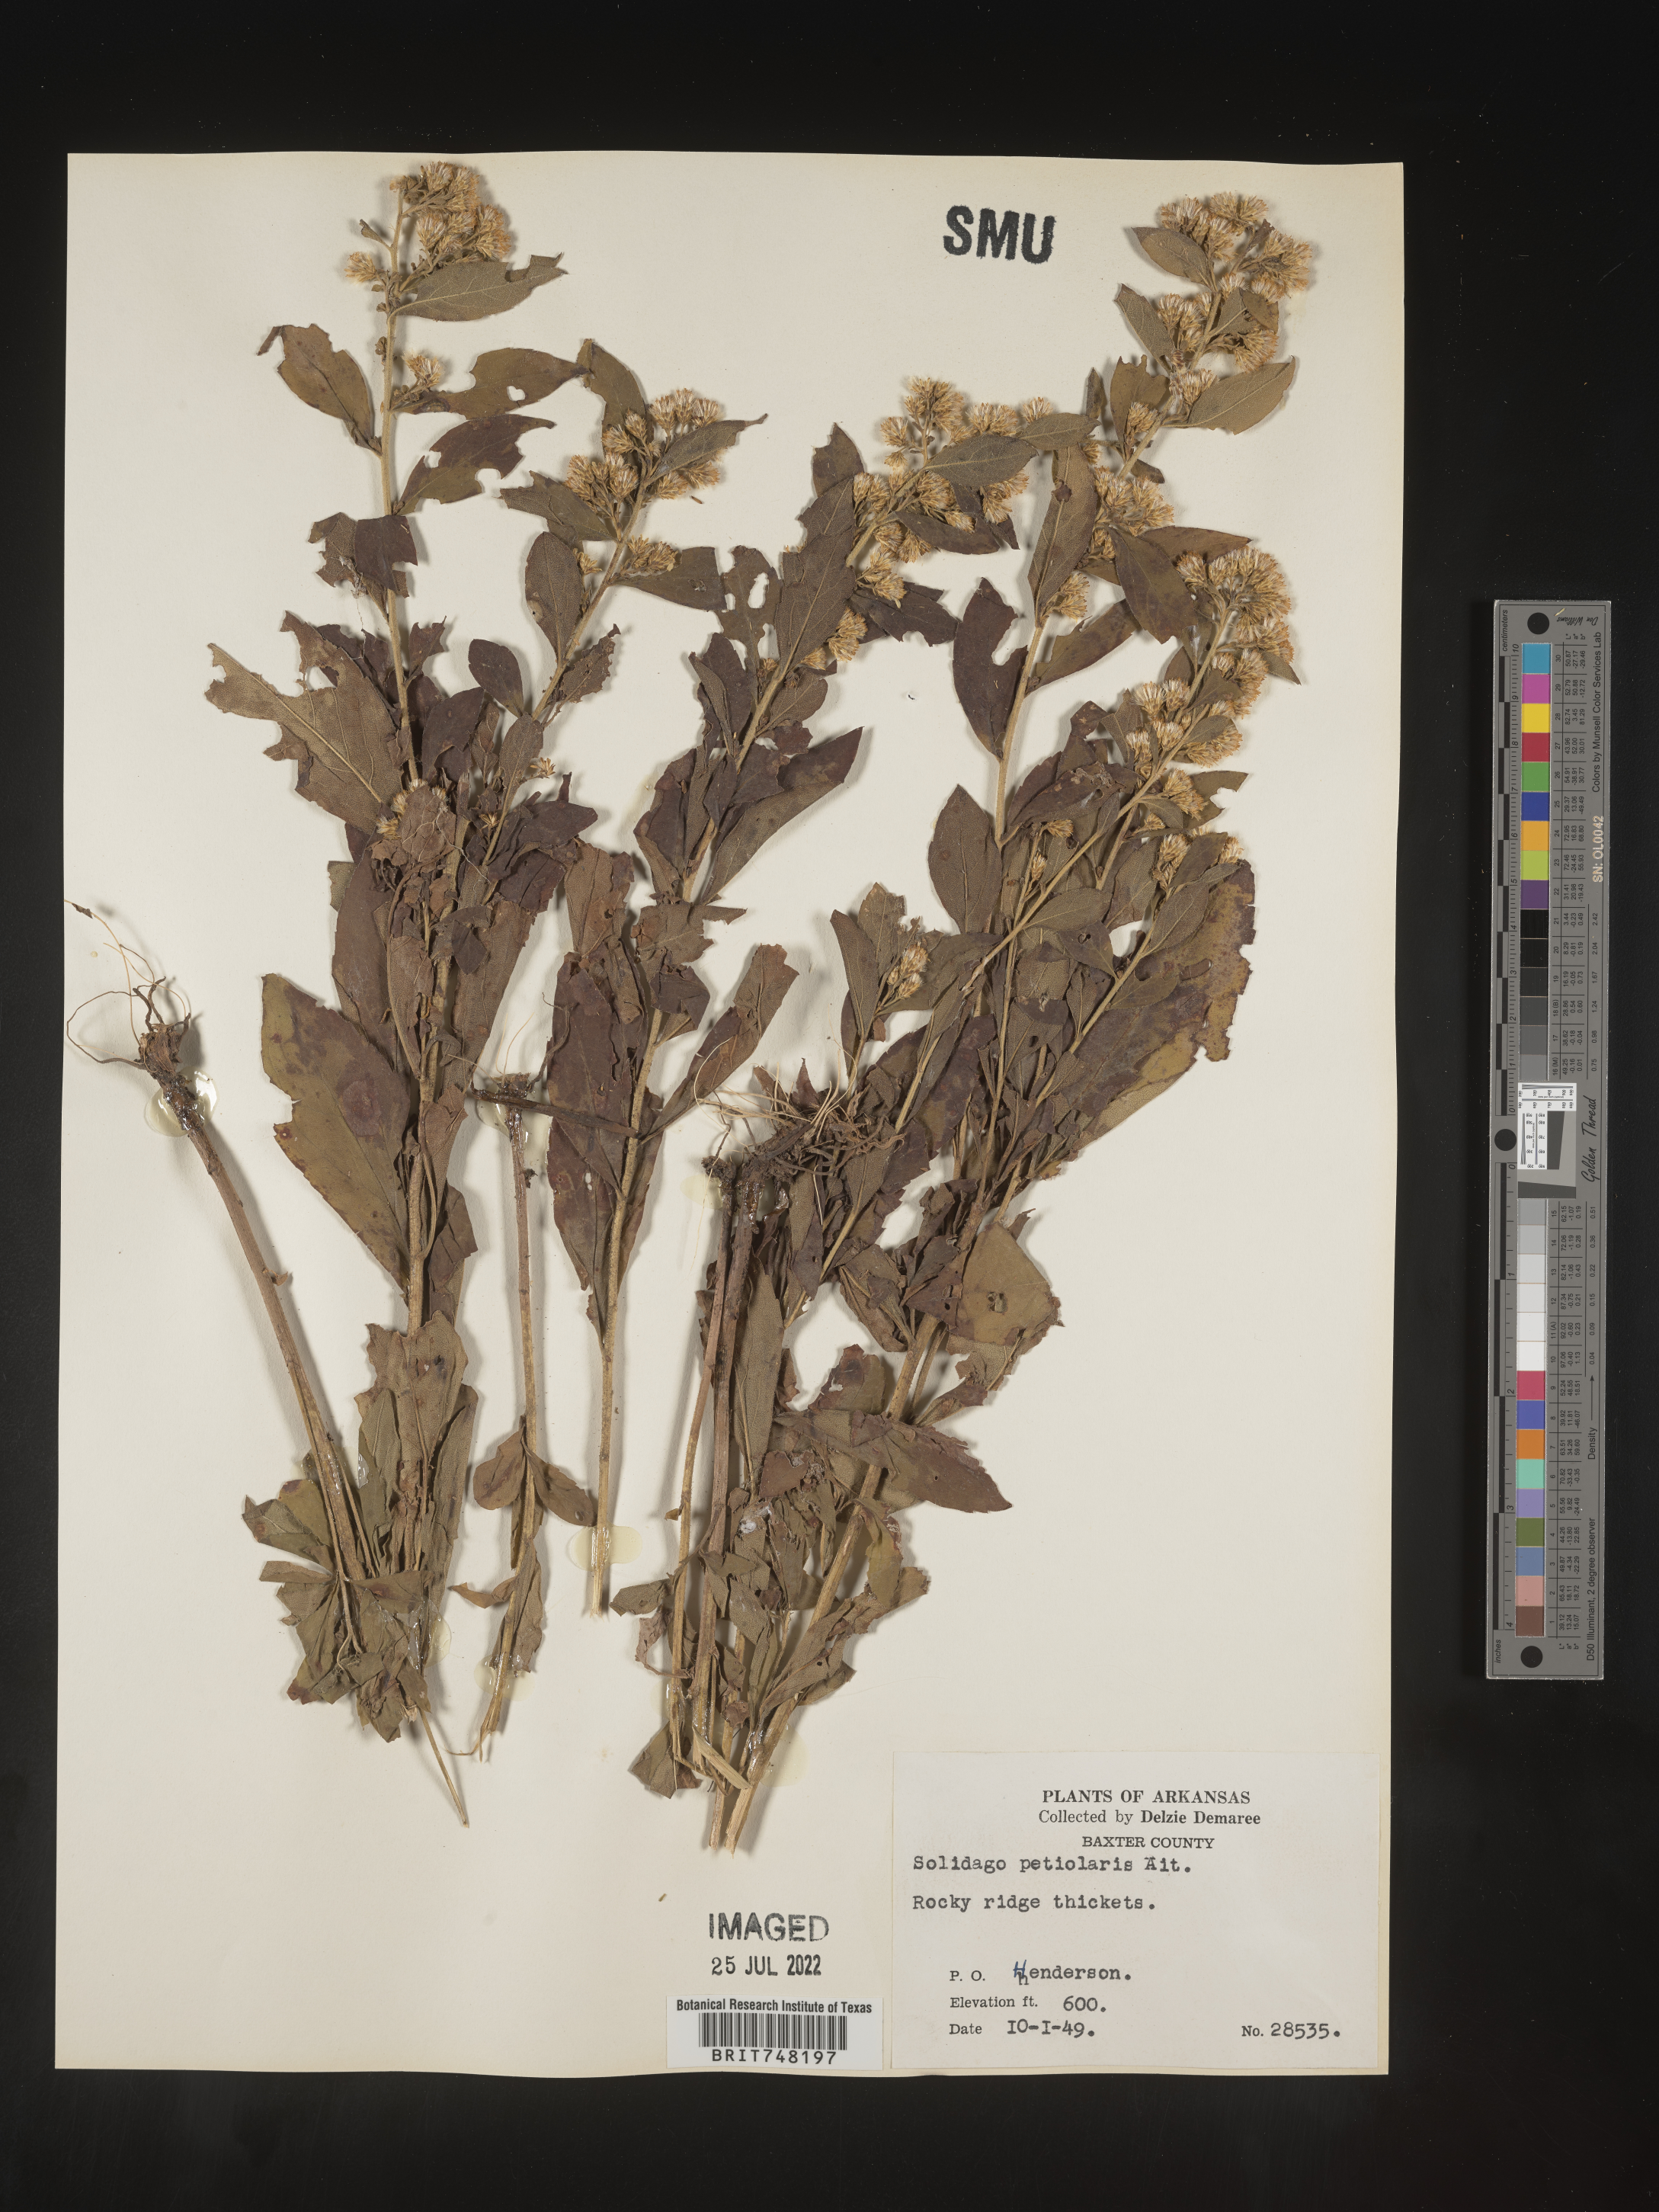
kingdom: Plantae
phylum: Tracheophyta
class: Magnoliopsida
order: Asterales
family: Asteraceae
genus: Solidago
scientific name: Solidago petiolaris
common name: Downy ragged goldenrod
